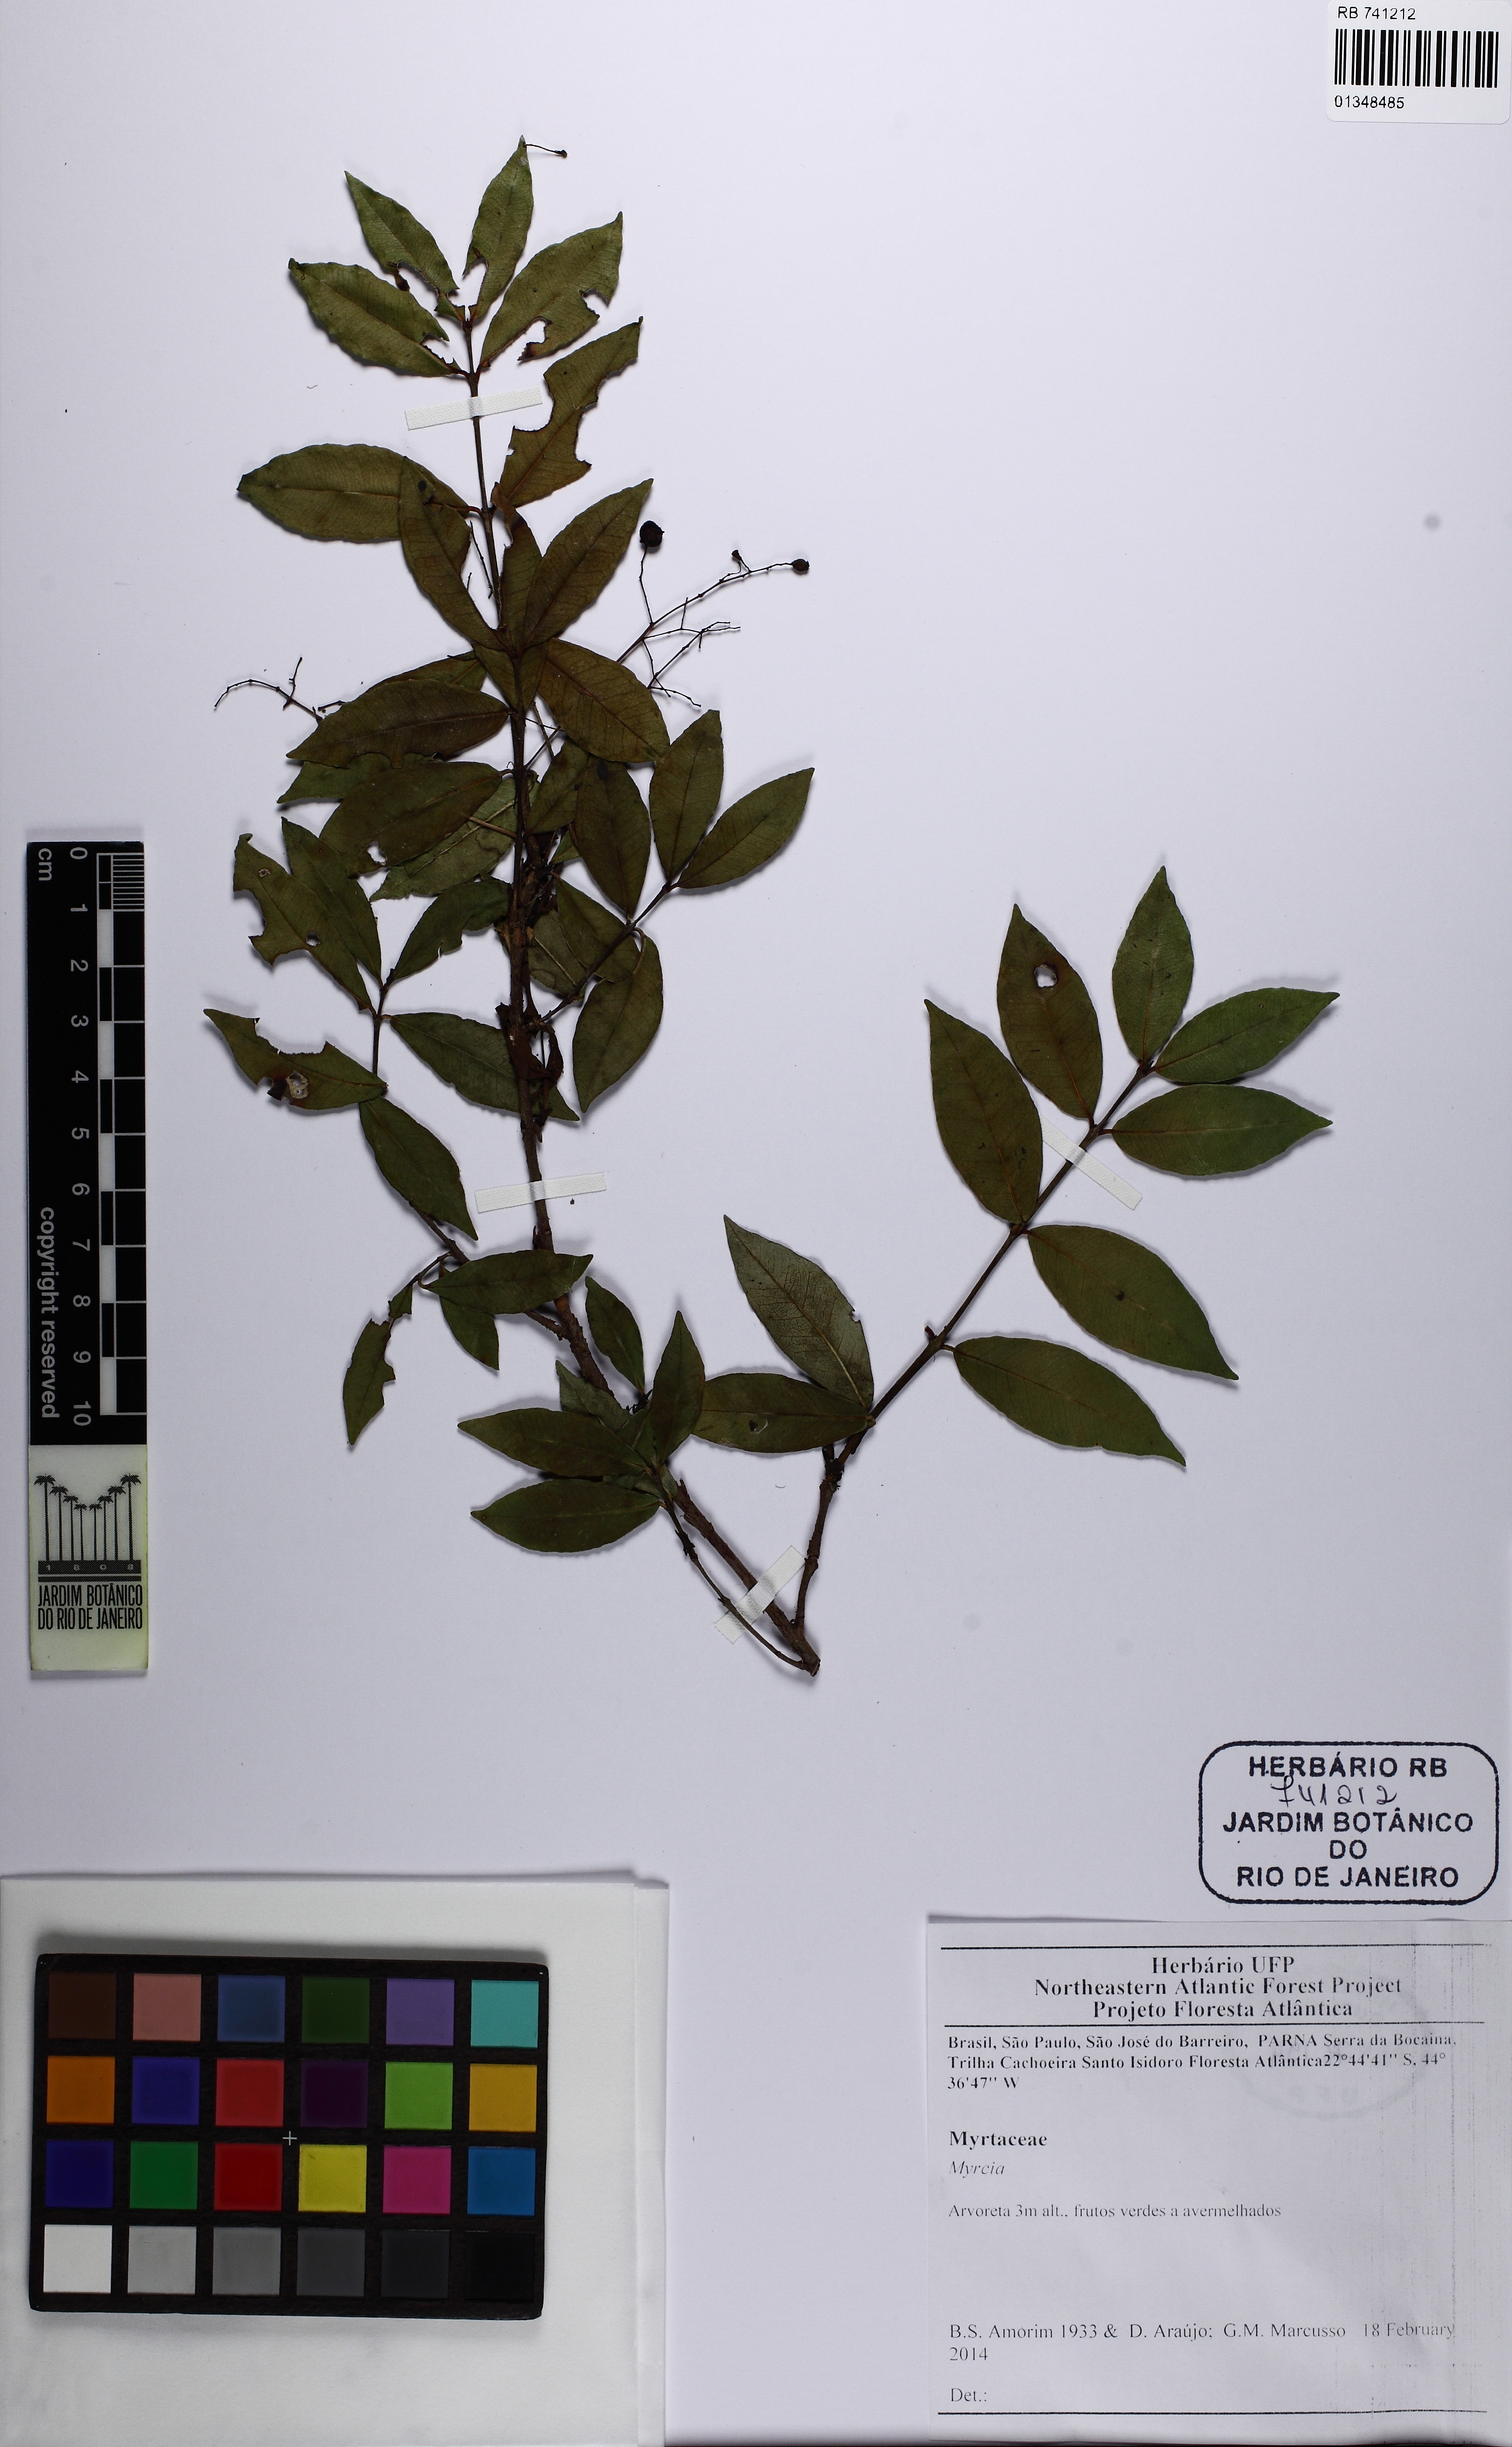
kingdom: Plantae
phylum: Tracheophyta
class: Magnoliopsida
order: Myrtales
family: Myrtaceae
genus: Myrcia
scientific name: Myrcia selloi
